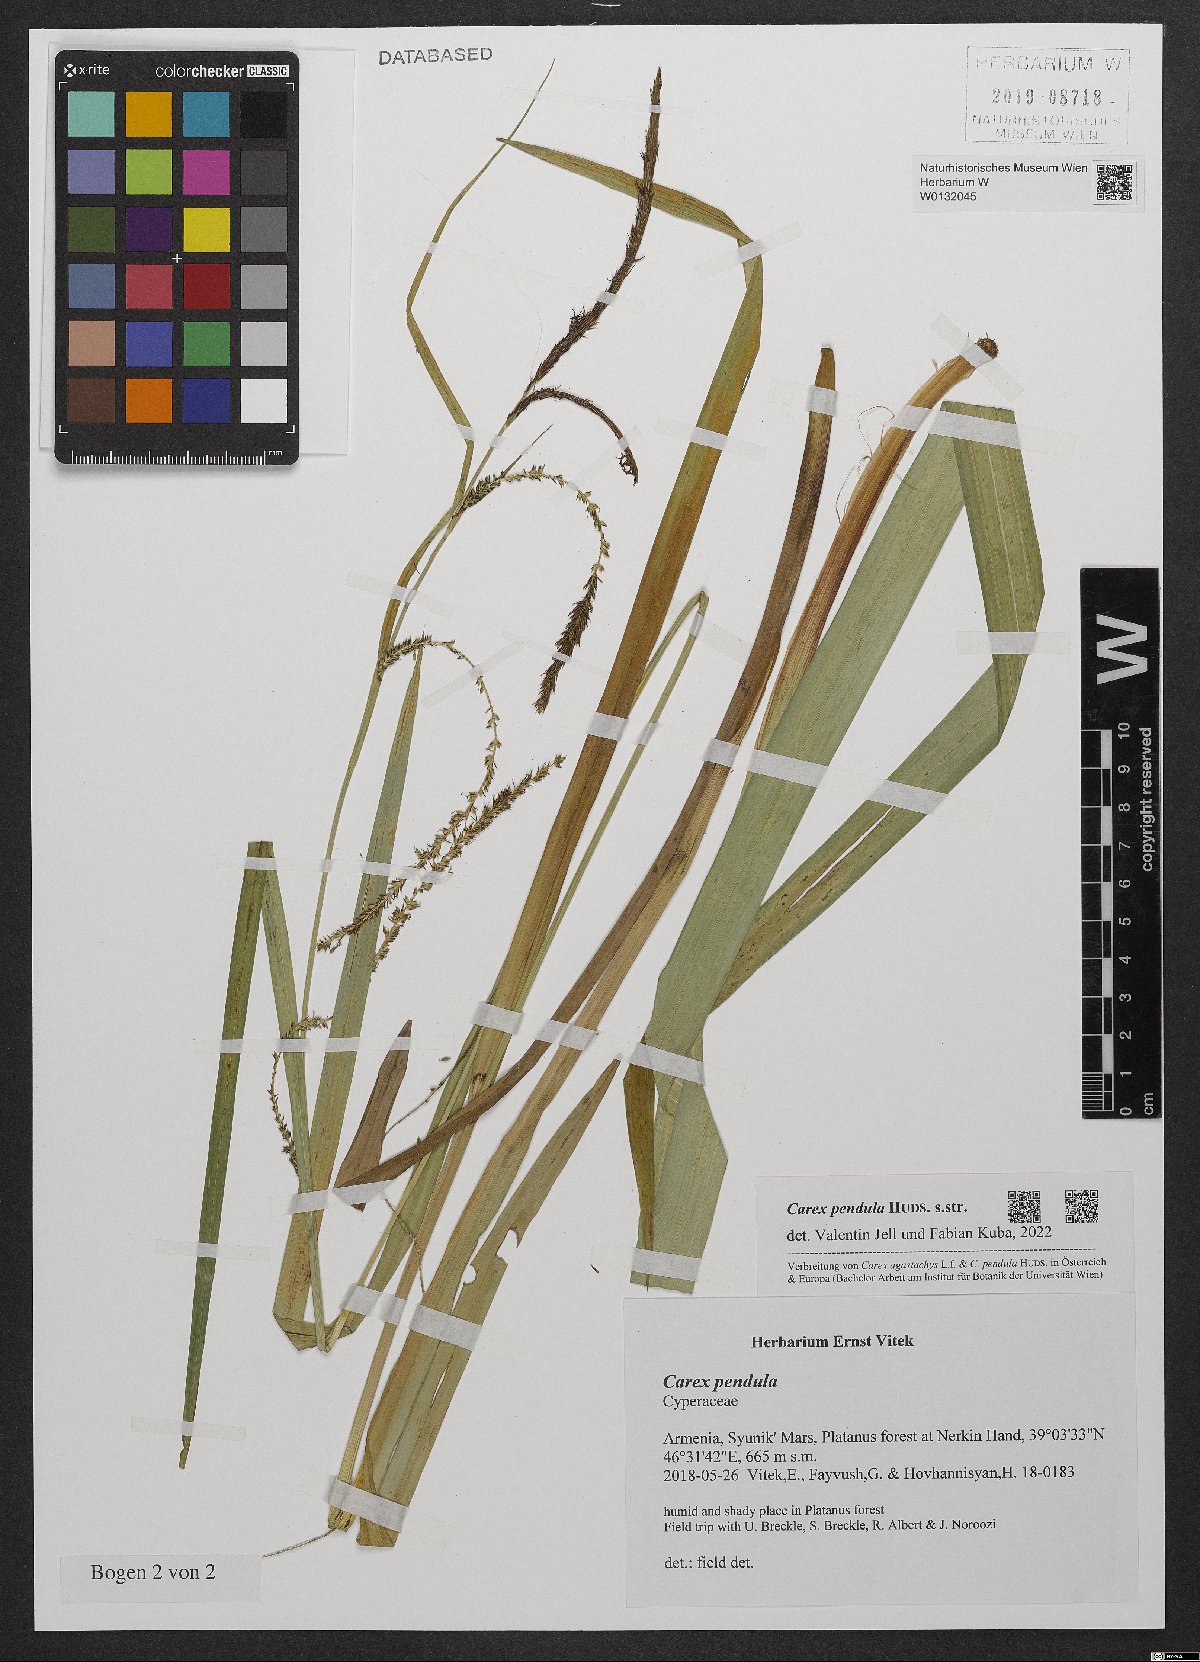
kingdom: Plantae
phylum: Tracheophyta
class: Liliopsida
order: Poales
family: Cyperaceae
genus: Carex
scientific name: Carex pendula
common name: Pendulous sedge
